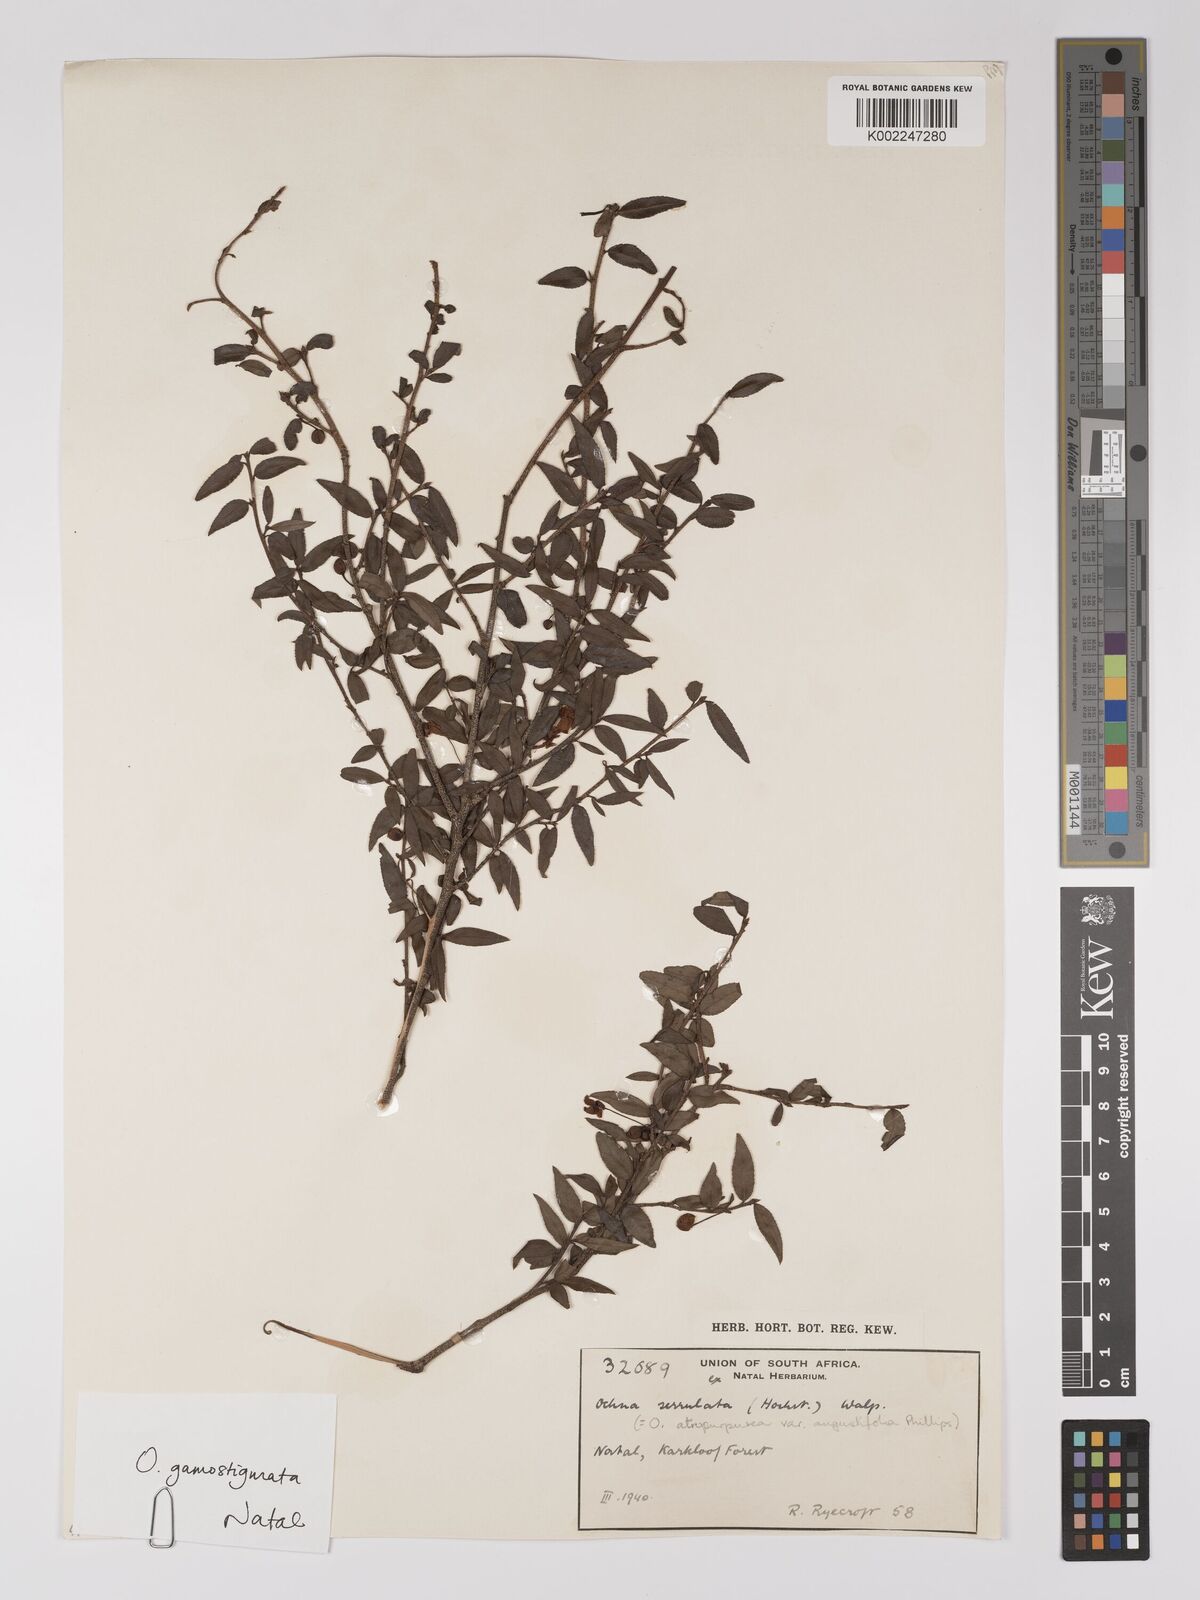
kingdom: Plantae
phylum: Tracheophyta
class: Magnoliopsida
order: Malpighiales
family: Ochnaceae
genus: Ochna
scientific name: Ochna gamostigmata
